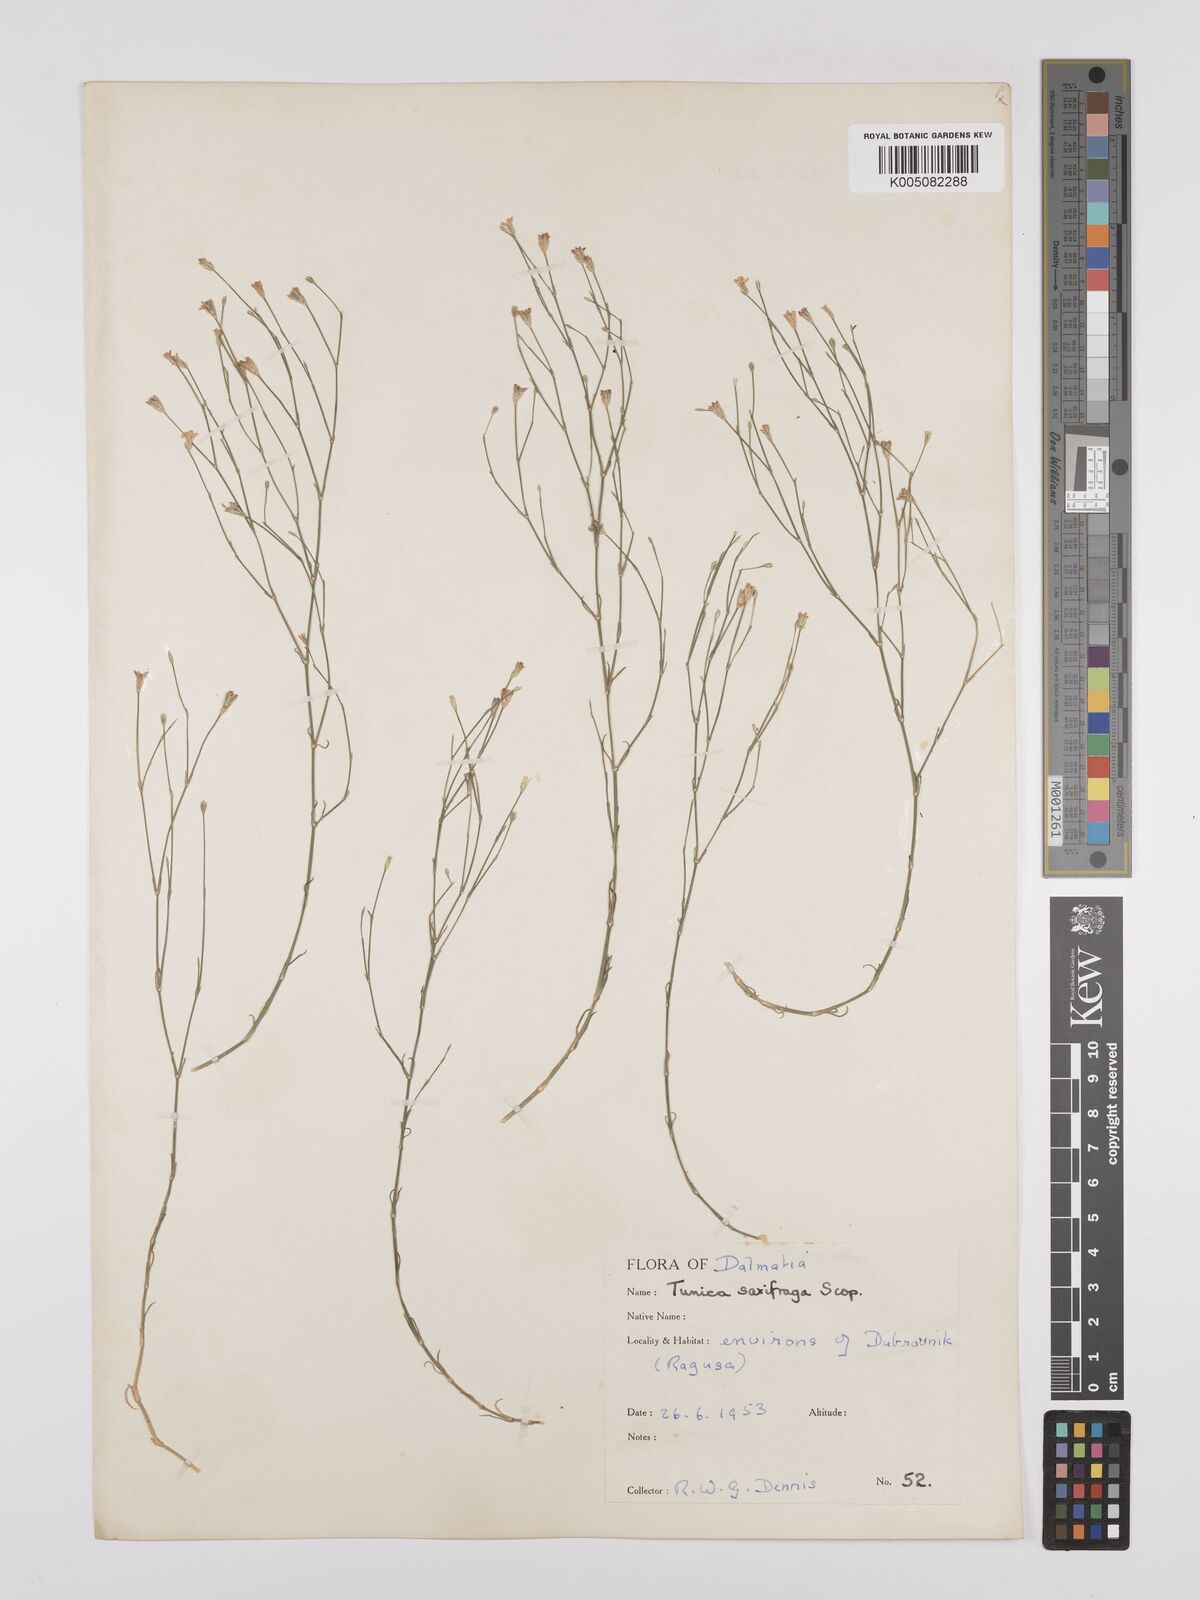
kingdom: Plantae
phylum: Tracheophyta
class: Magnoliopsida
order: Caryophyllales
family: Caryophyllaceae
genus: Petrorhagia
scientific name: Petrorhagia saxifraga
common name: Tunicflower
